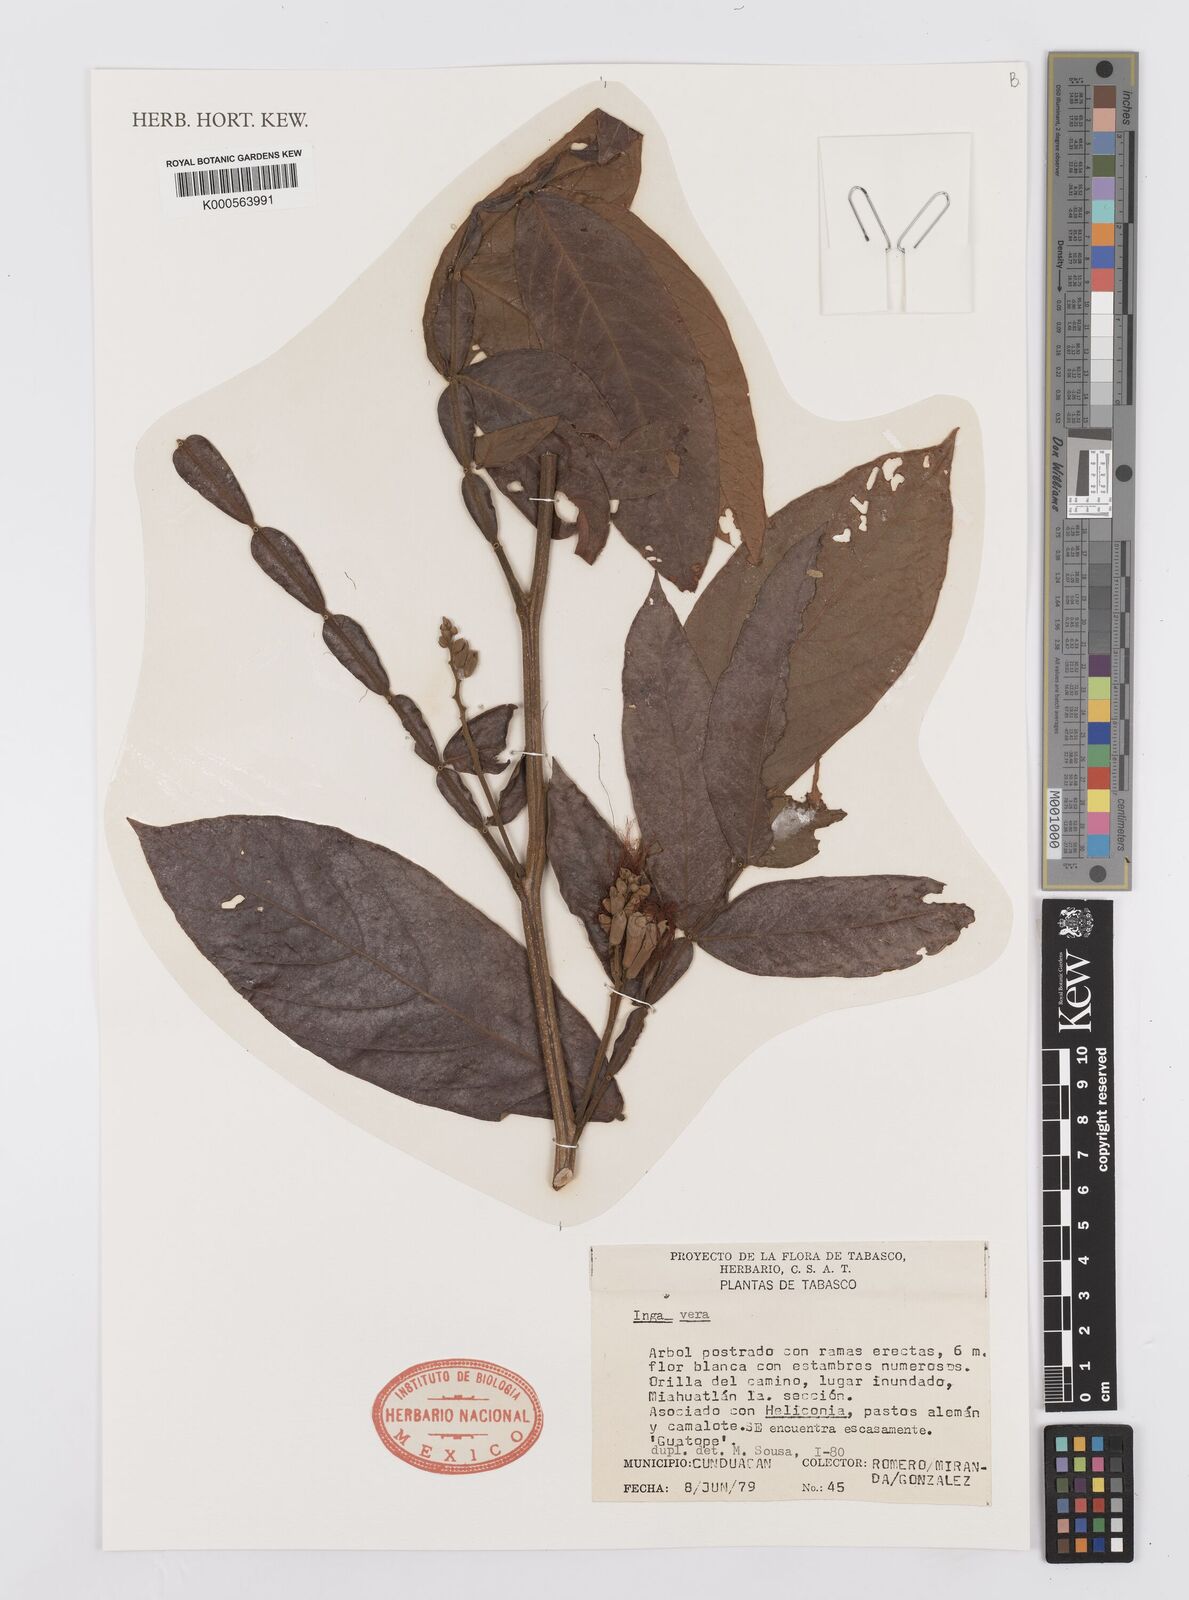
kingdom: Plantae
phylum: Tracheophyta
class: Magnoliopsida
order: Fabales
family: Fabaceae
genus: Inga
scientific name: Inga vera
